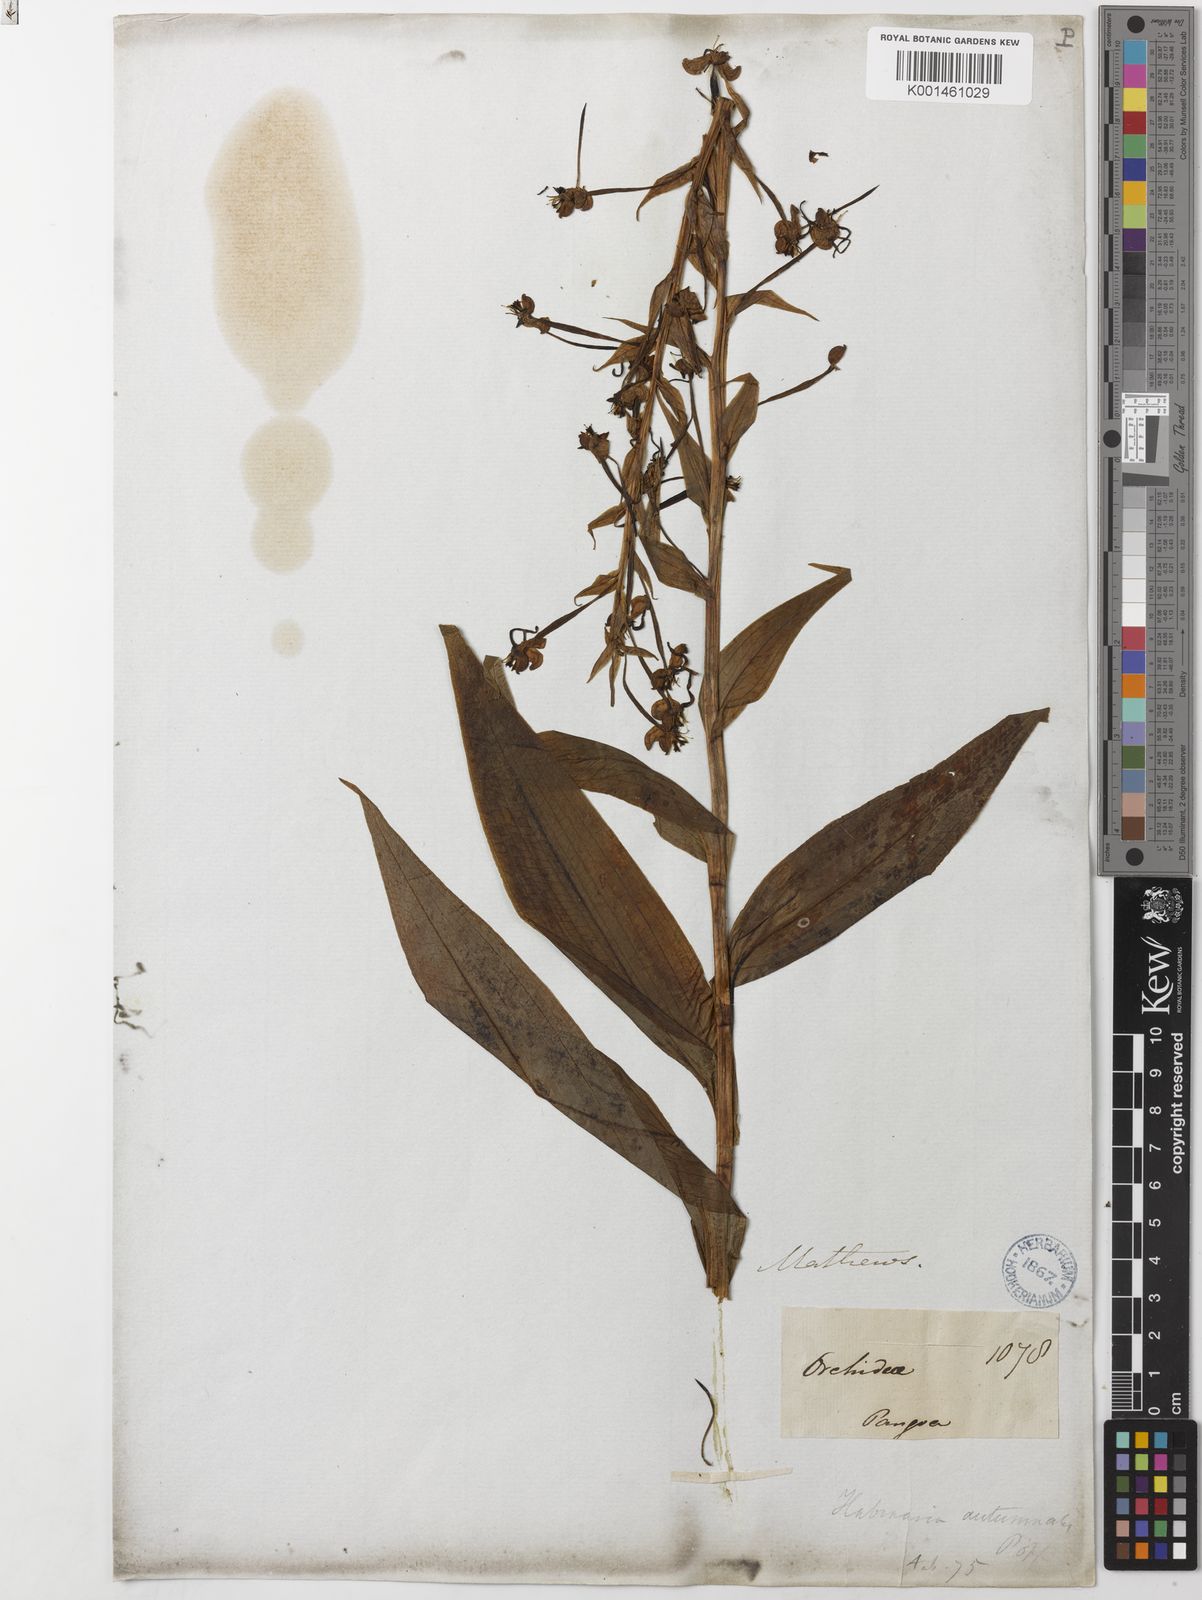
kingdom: Plantae
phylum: Tracheophyta
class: Liliopsida
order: Asparagales
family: Orchidaceae
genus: Habenaria
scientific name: Habenaria floribunda
